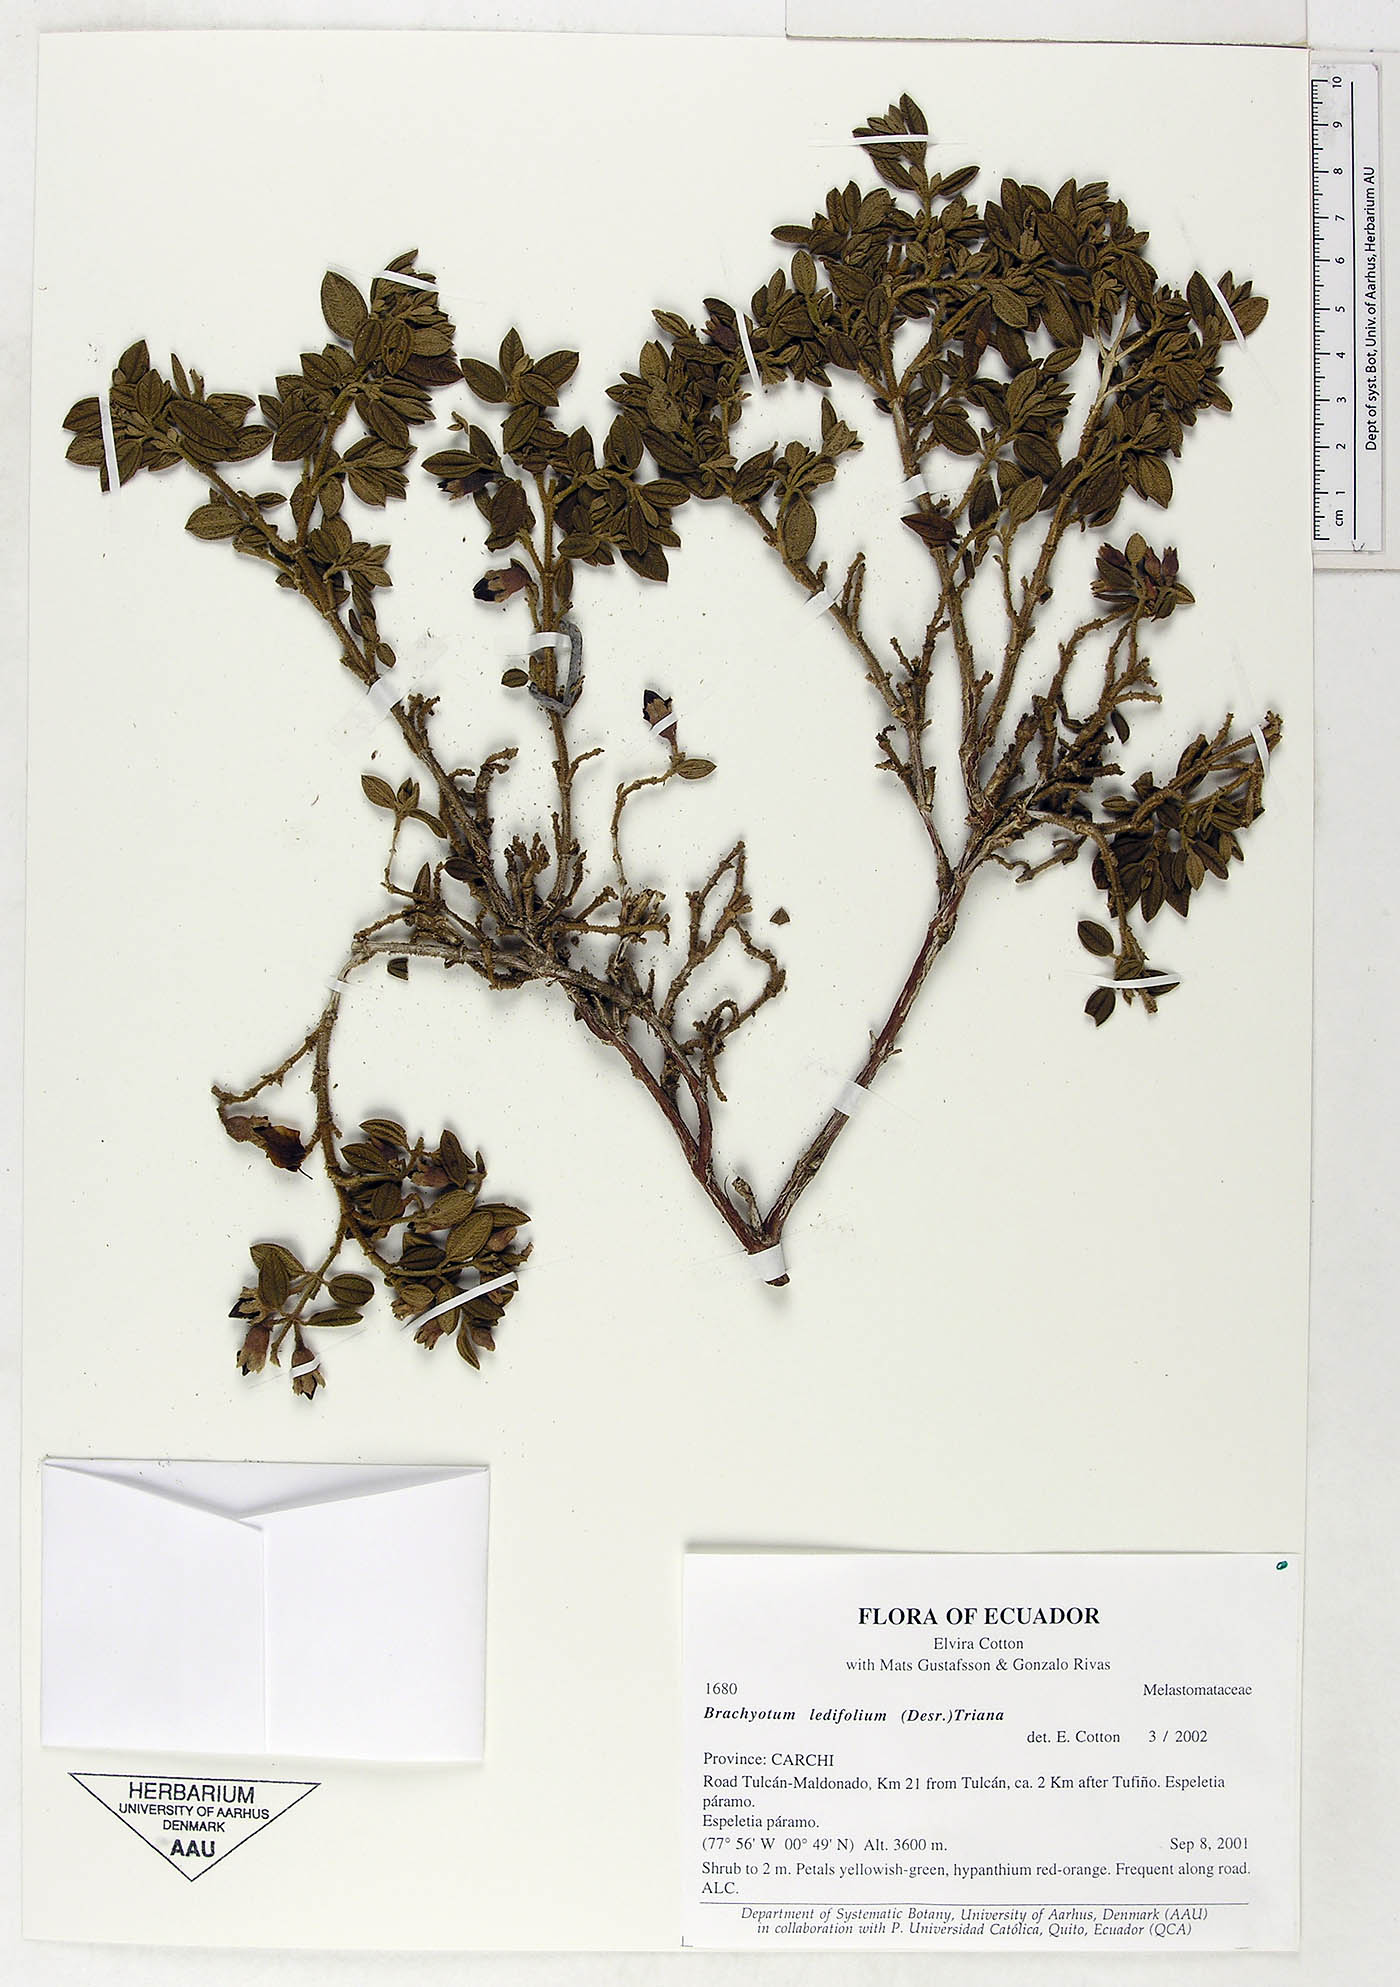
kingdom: Plantae
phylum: Tracheophyta
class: Magnoliopsida
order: Myrtales
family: Melastomataceae
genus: Brachyotum
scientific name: Brachyotum ledifolium
